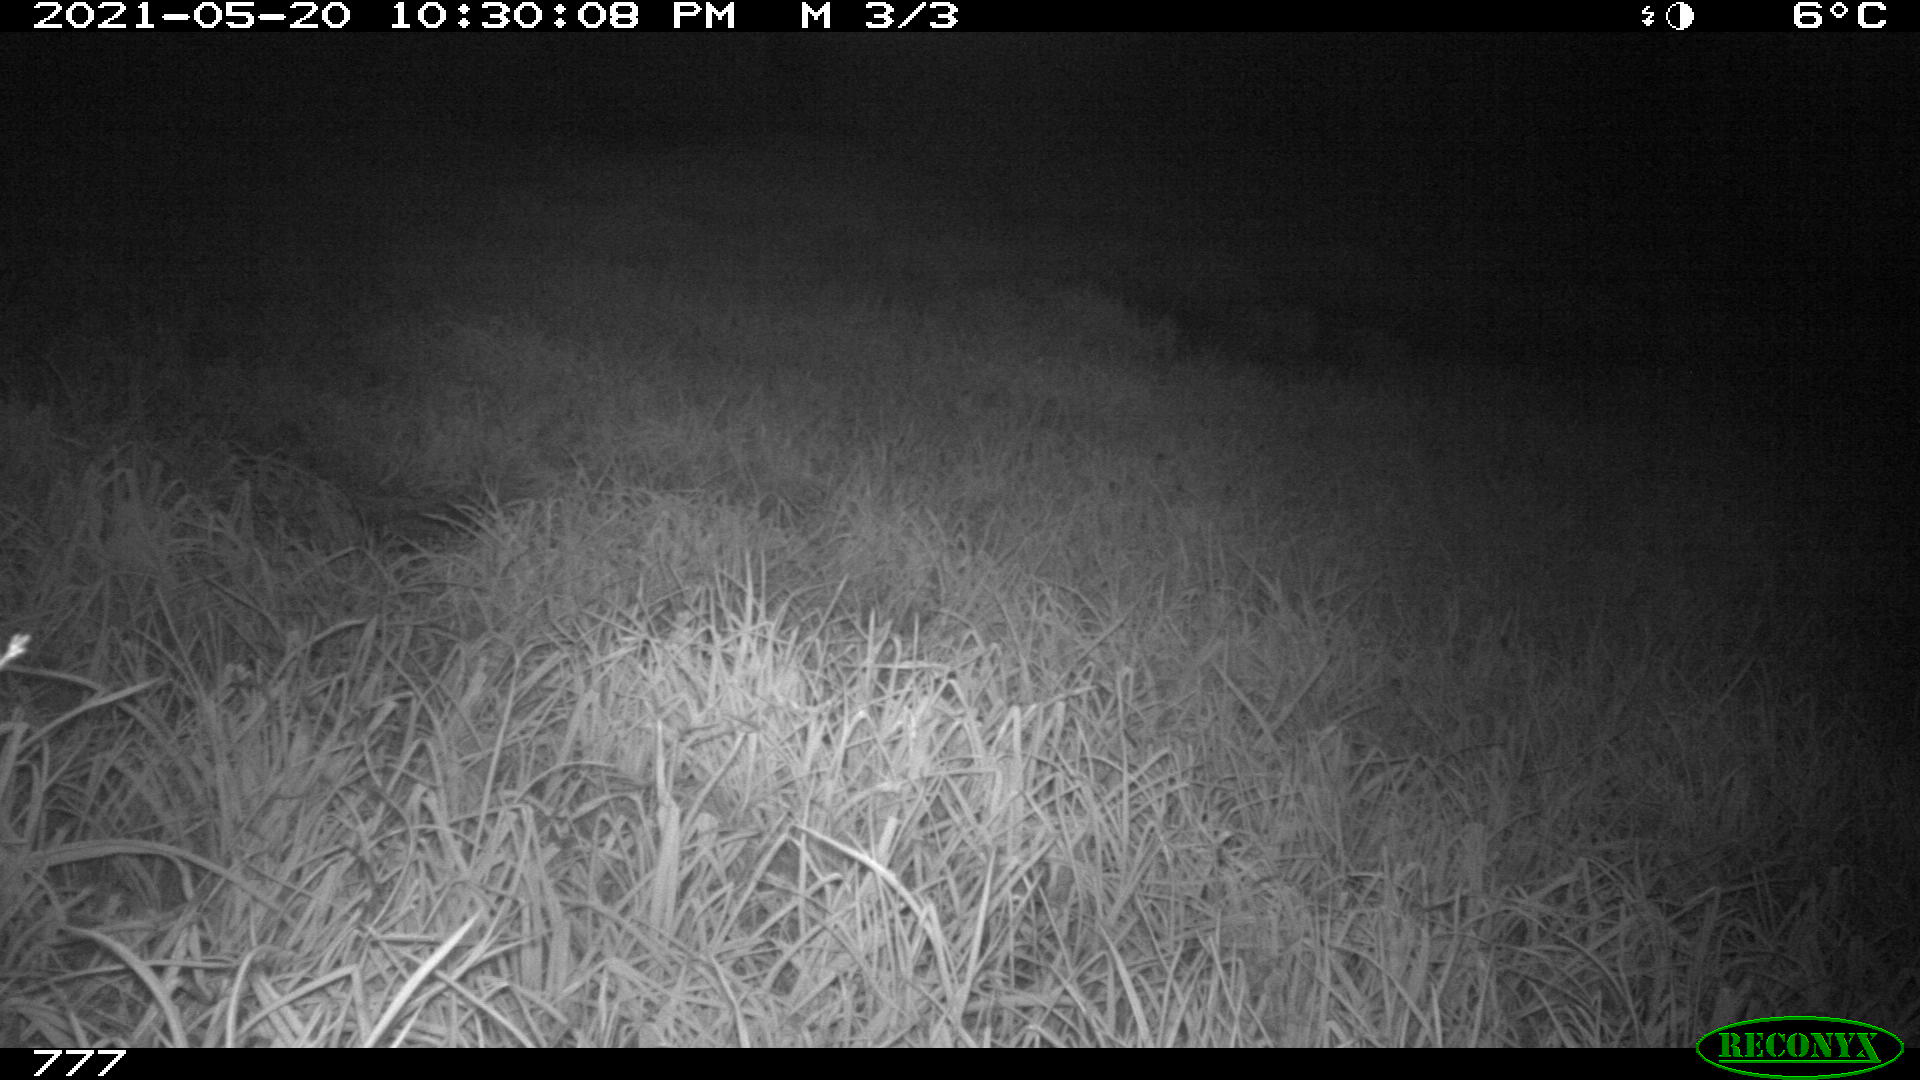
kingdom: Animalia
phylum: Chordata
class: Mammalia
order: Artiodactyla
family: Cervidae
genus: Capreolus
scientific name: Capreolus capreolus
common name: Western roe deer
